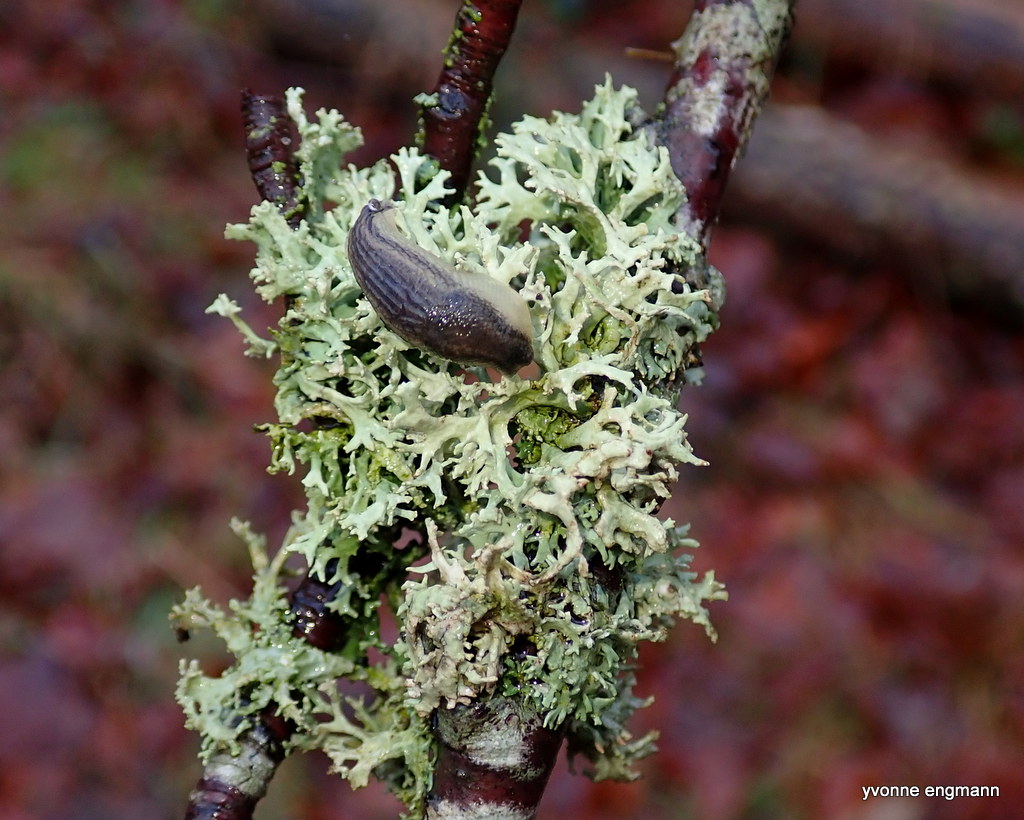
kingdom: Fungi
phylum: Ascomycota
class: Lecanoromycetes
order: Lecanorales
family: Parmeliaceae
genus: Evernia
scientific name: Evernia prunastri
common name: almindelig slåenlav
